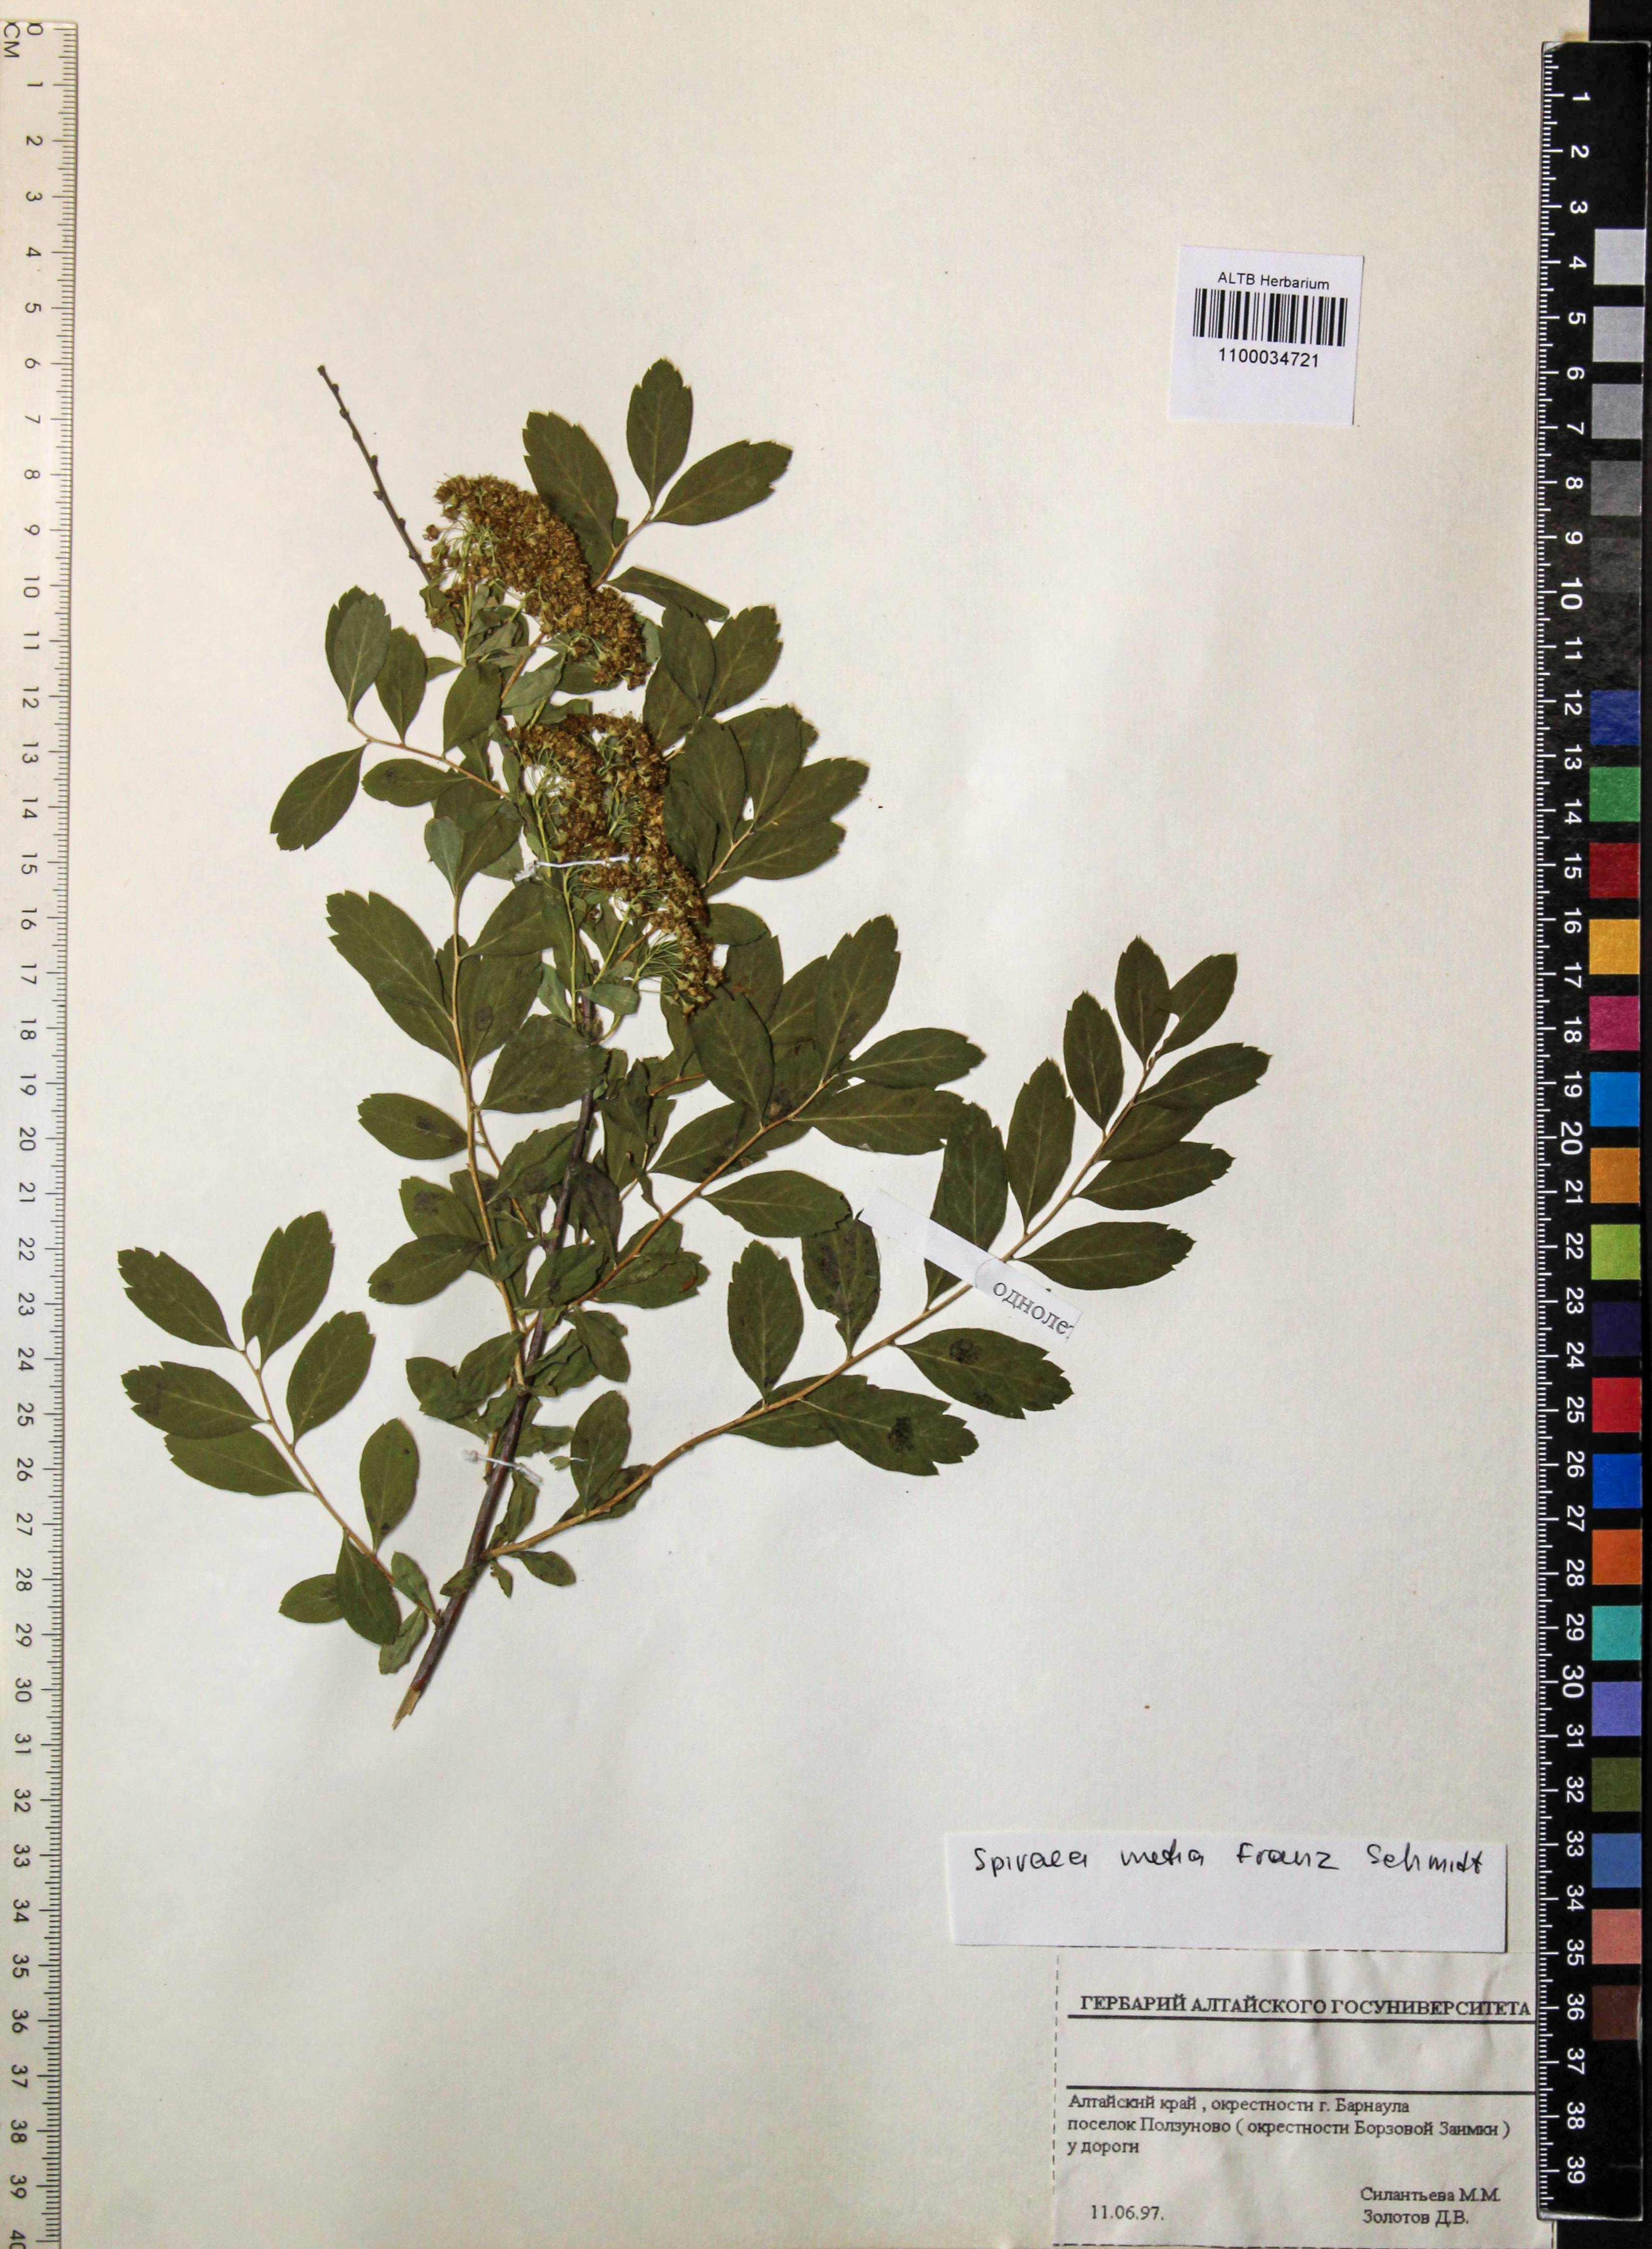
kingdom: Plantae
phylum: Tracheophyta
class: Magnoliopsida
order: Rosales
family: Rosaceae
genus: Spiraea
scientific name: Spiraea media
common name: Russian spiraea
